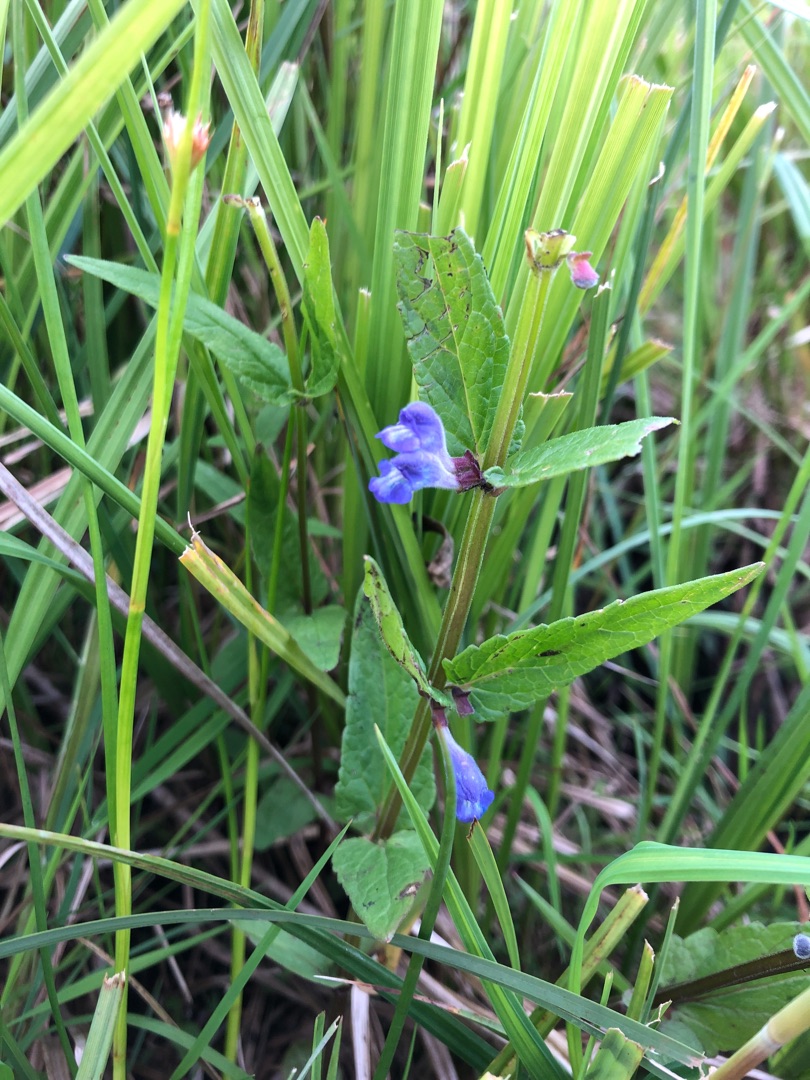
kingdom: Plantae
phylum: Tracheophyta
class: Magnoliopsida
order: Lamiales
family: Lamiaceae
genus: Scutellaria
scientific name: Scutellaria galericulata
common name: Almindelig skjolddrager
